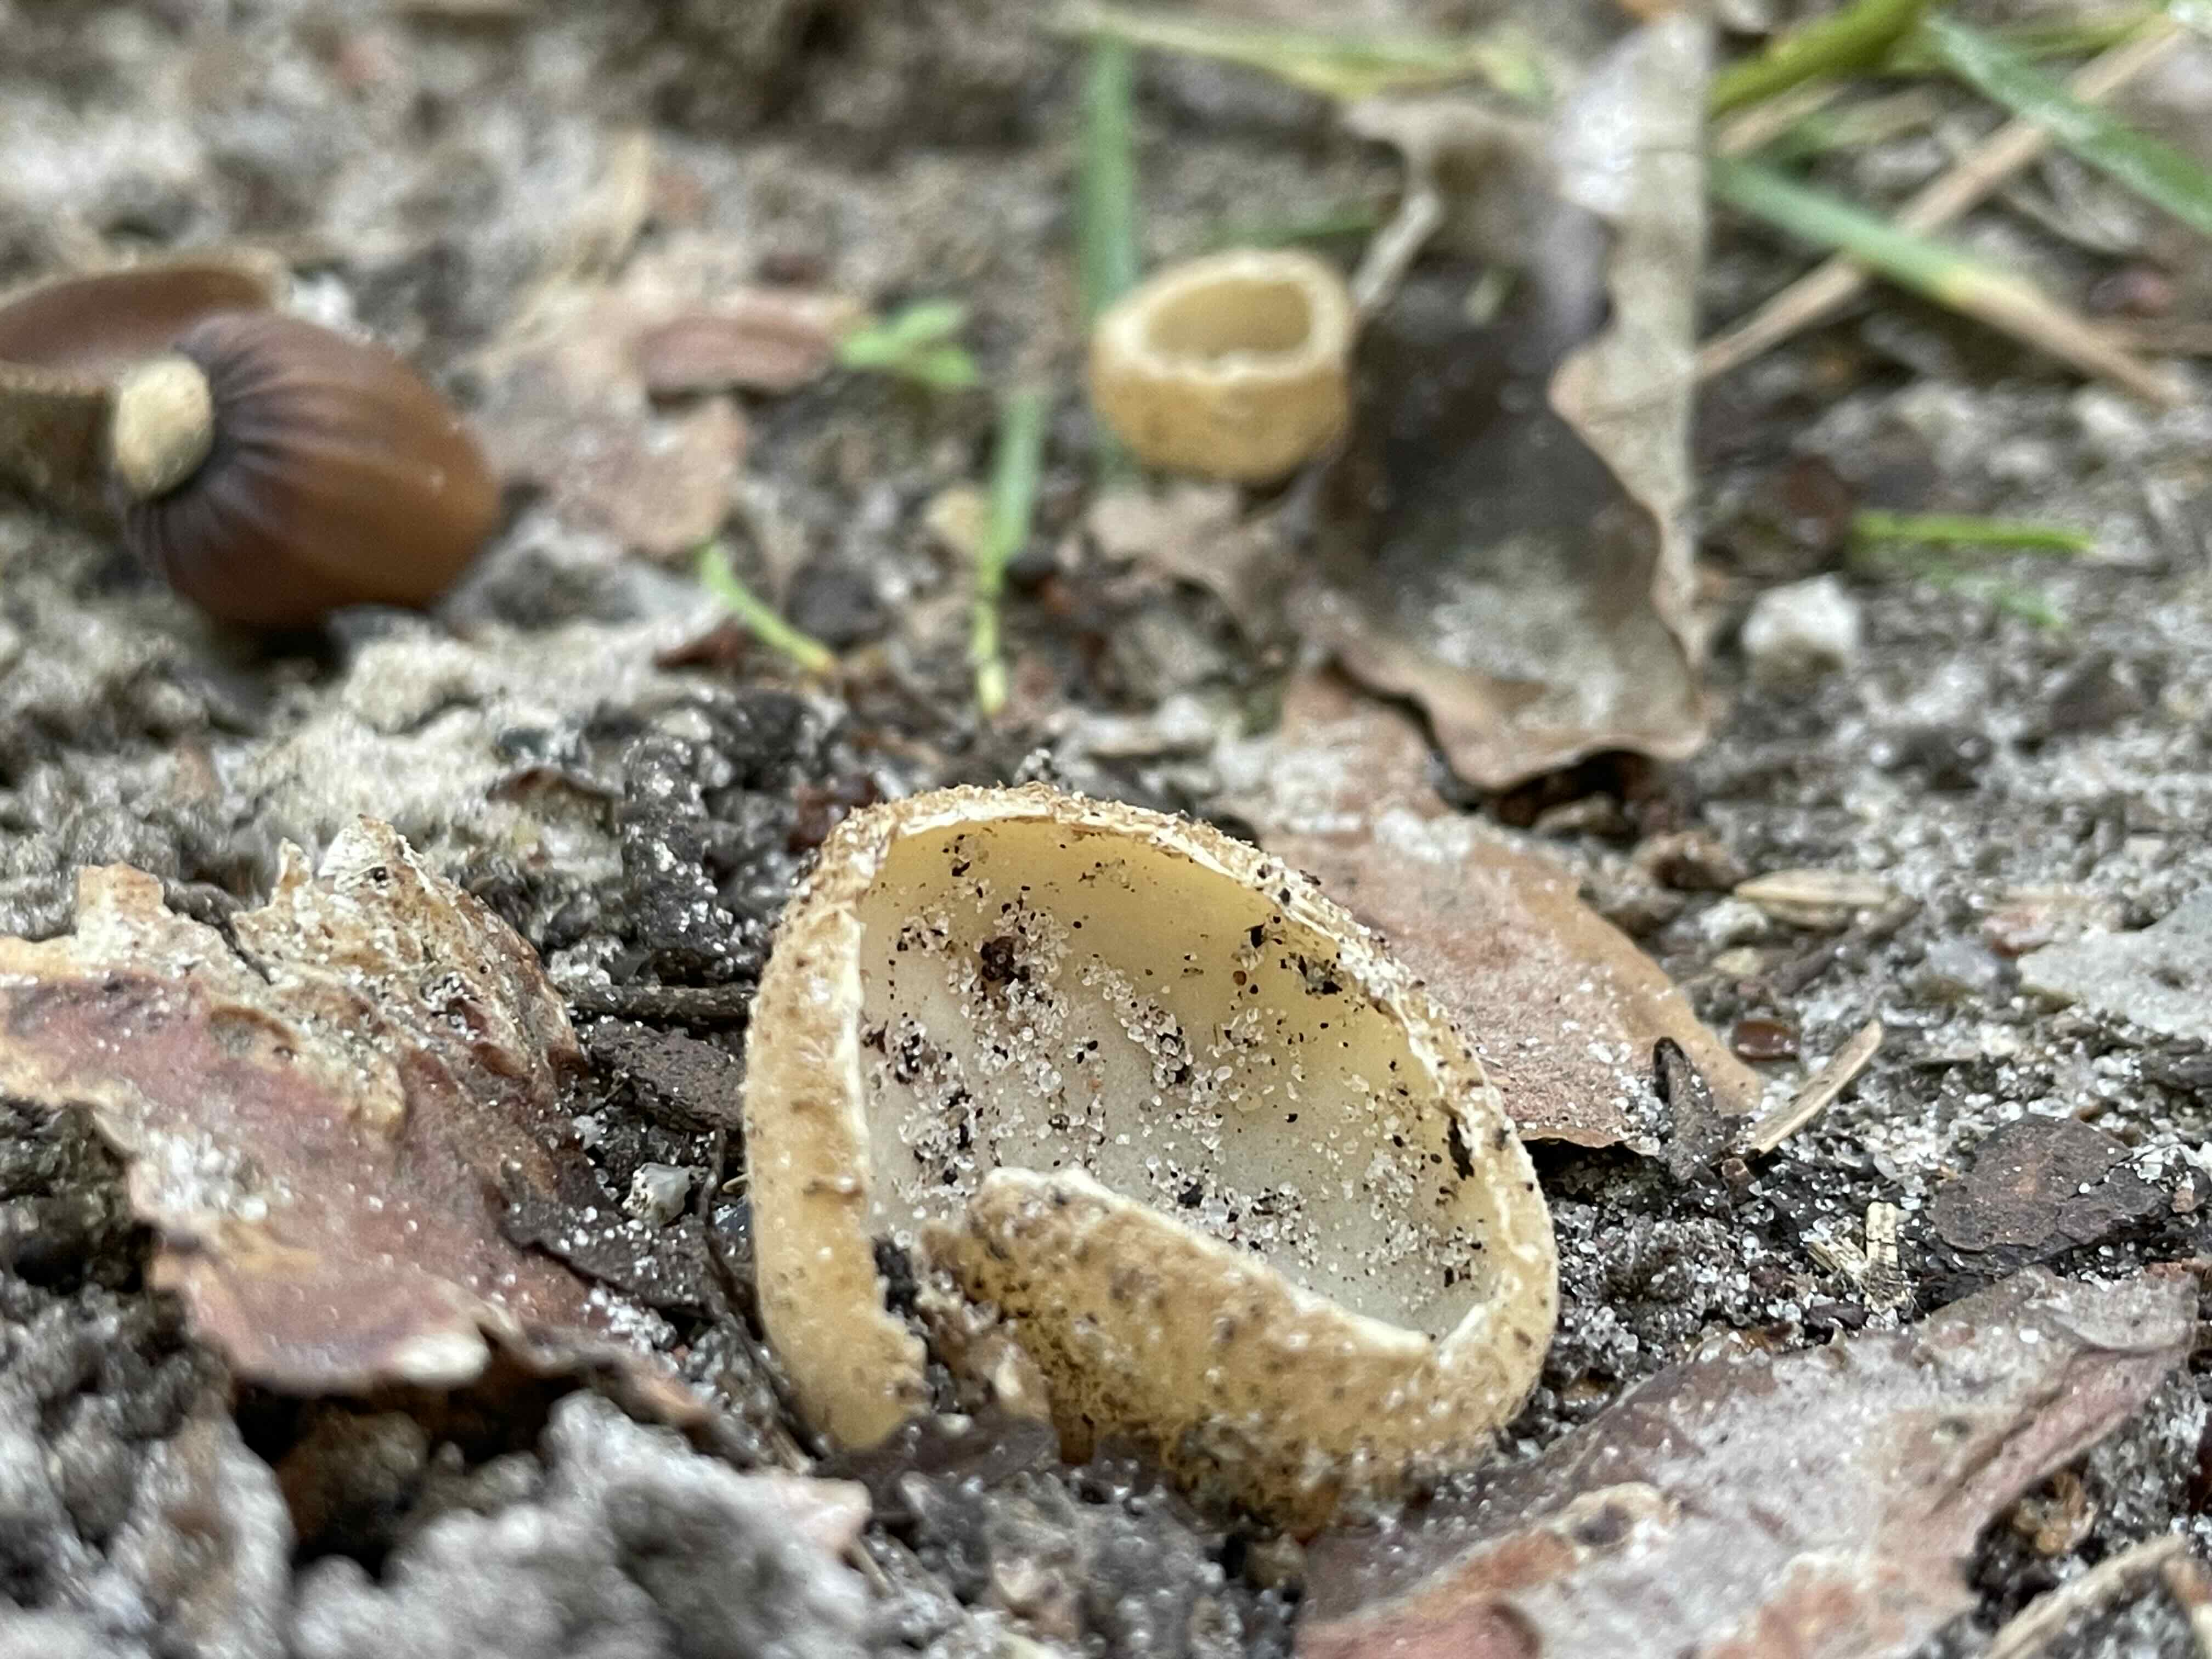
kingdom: Fungi
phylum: Ascomycota
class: Pezizomycetes
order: Pezizales
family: Pyronemataceae
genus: Tarzetta
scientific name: Tarzetta
